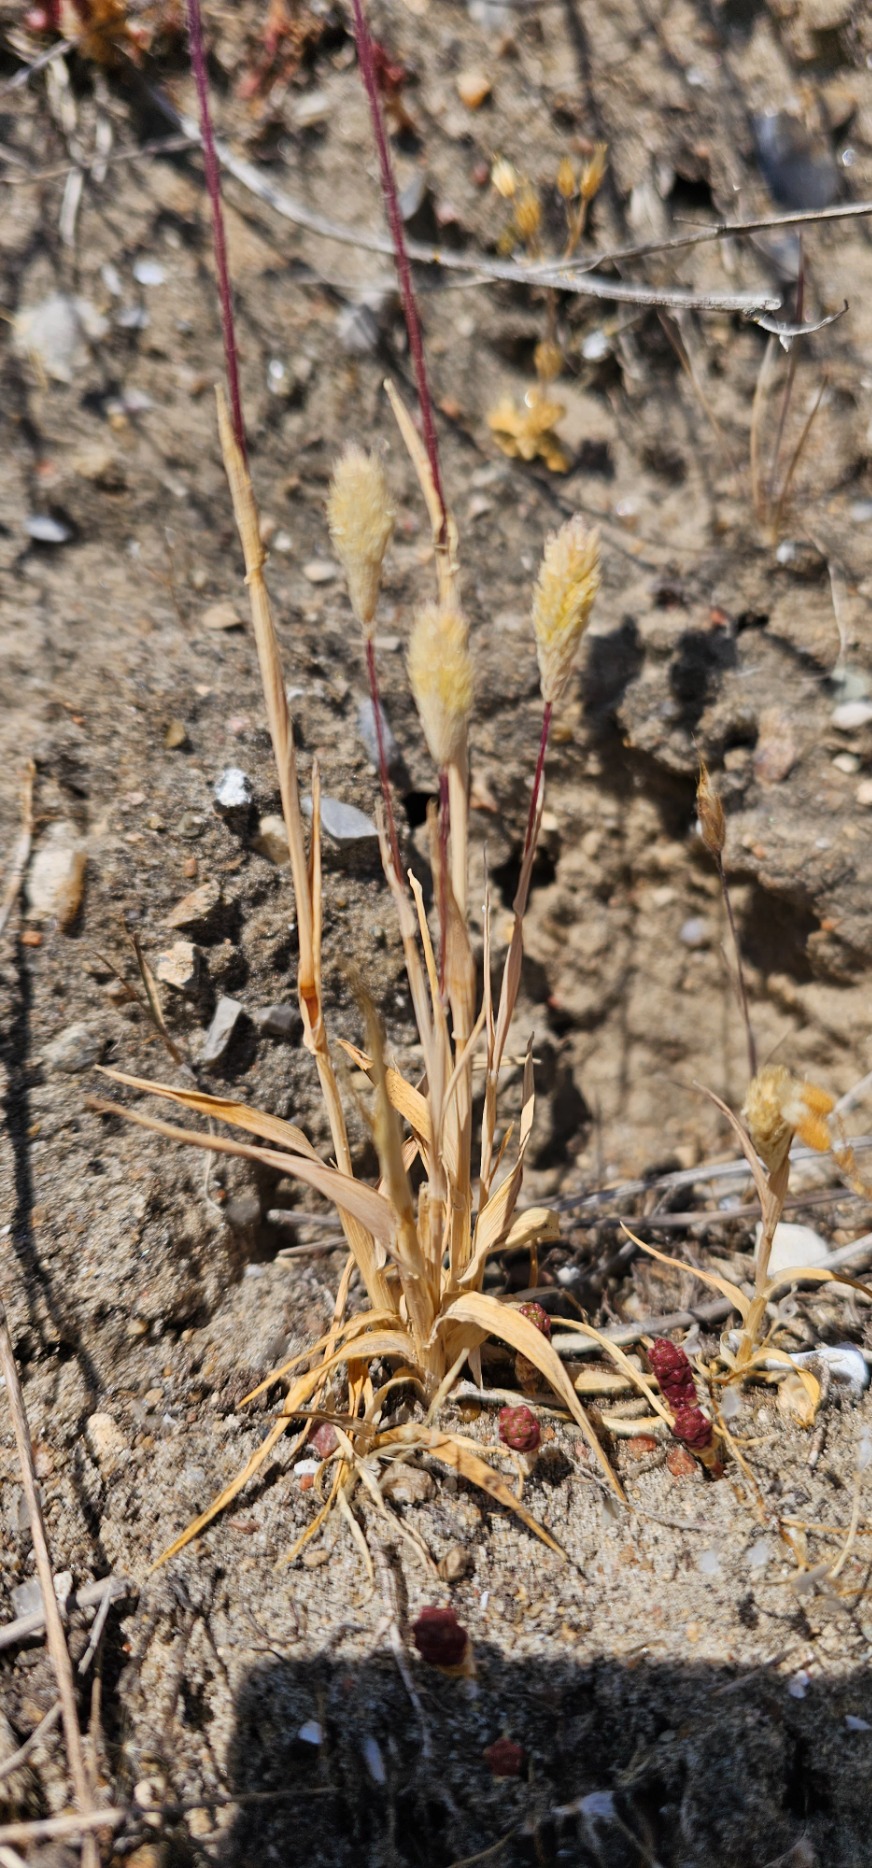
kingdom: Plantae
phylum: Tracheophyta
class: Liliopsida
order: Poales
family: Poaceae
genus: Phleum
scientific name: Phleum arenarium
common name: Sand-rottehale
